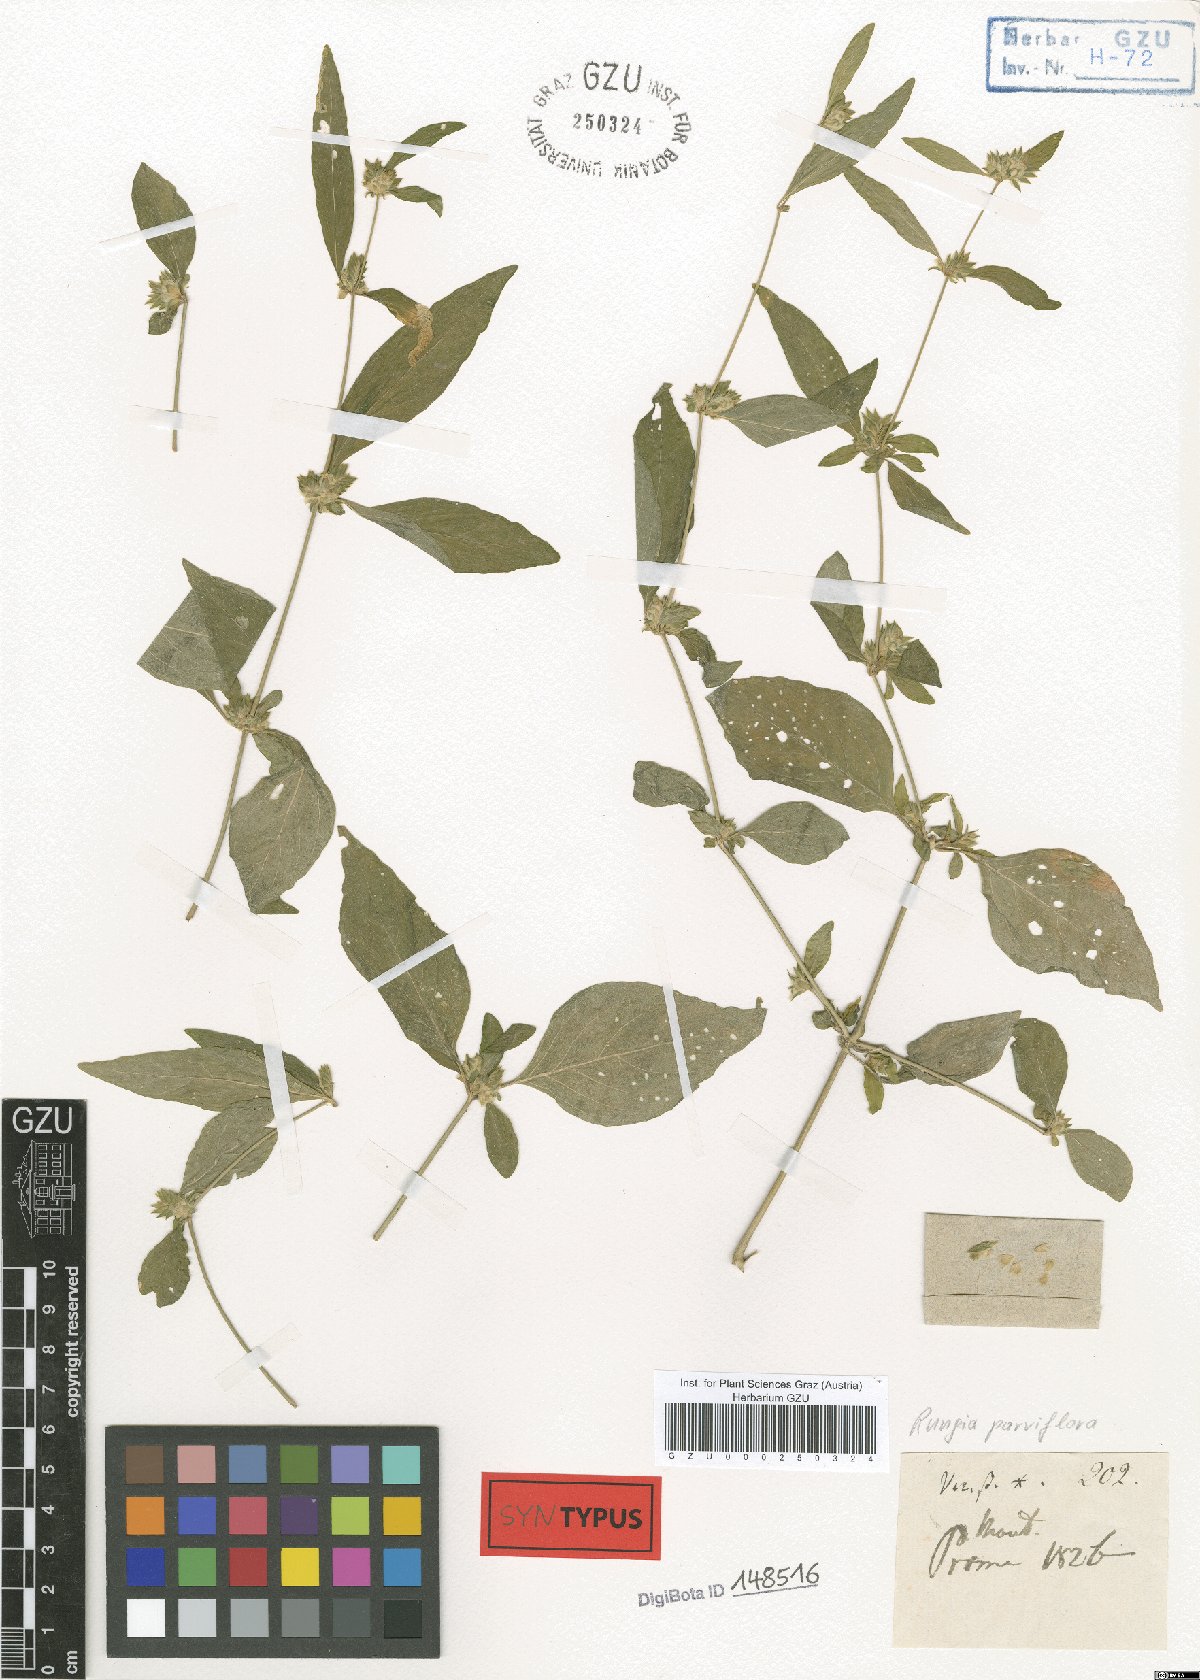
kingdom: Plantae
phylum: Tracheophyta
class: Magnoliopsida
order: Lamiales
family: Acanthaceae
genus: Rungia
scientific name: Rungia parviflora
